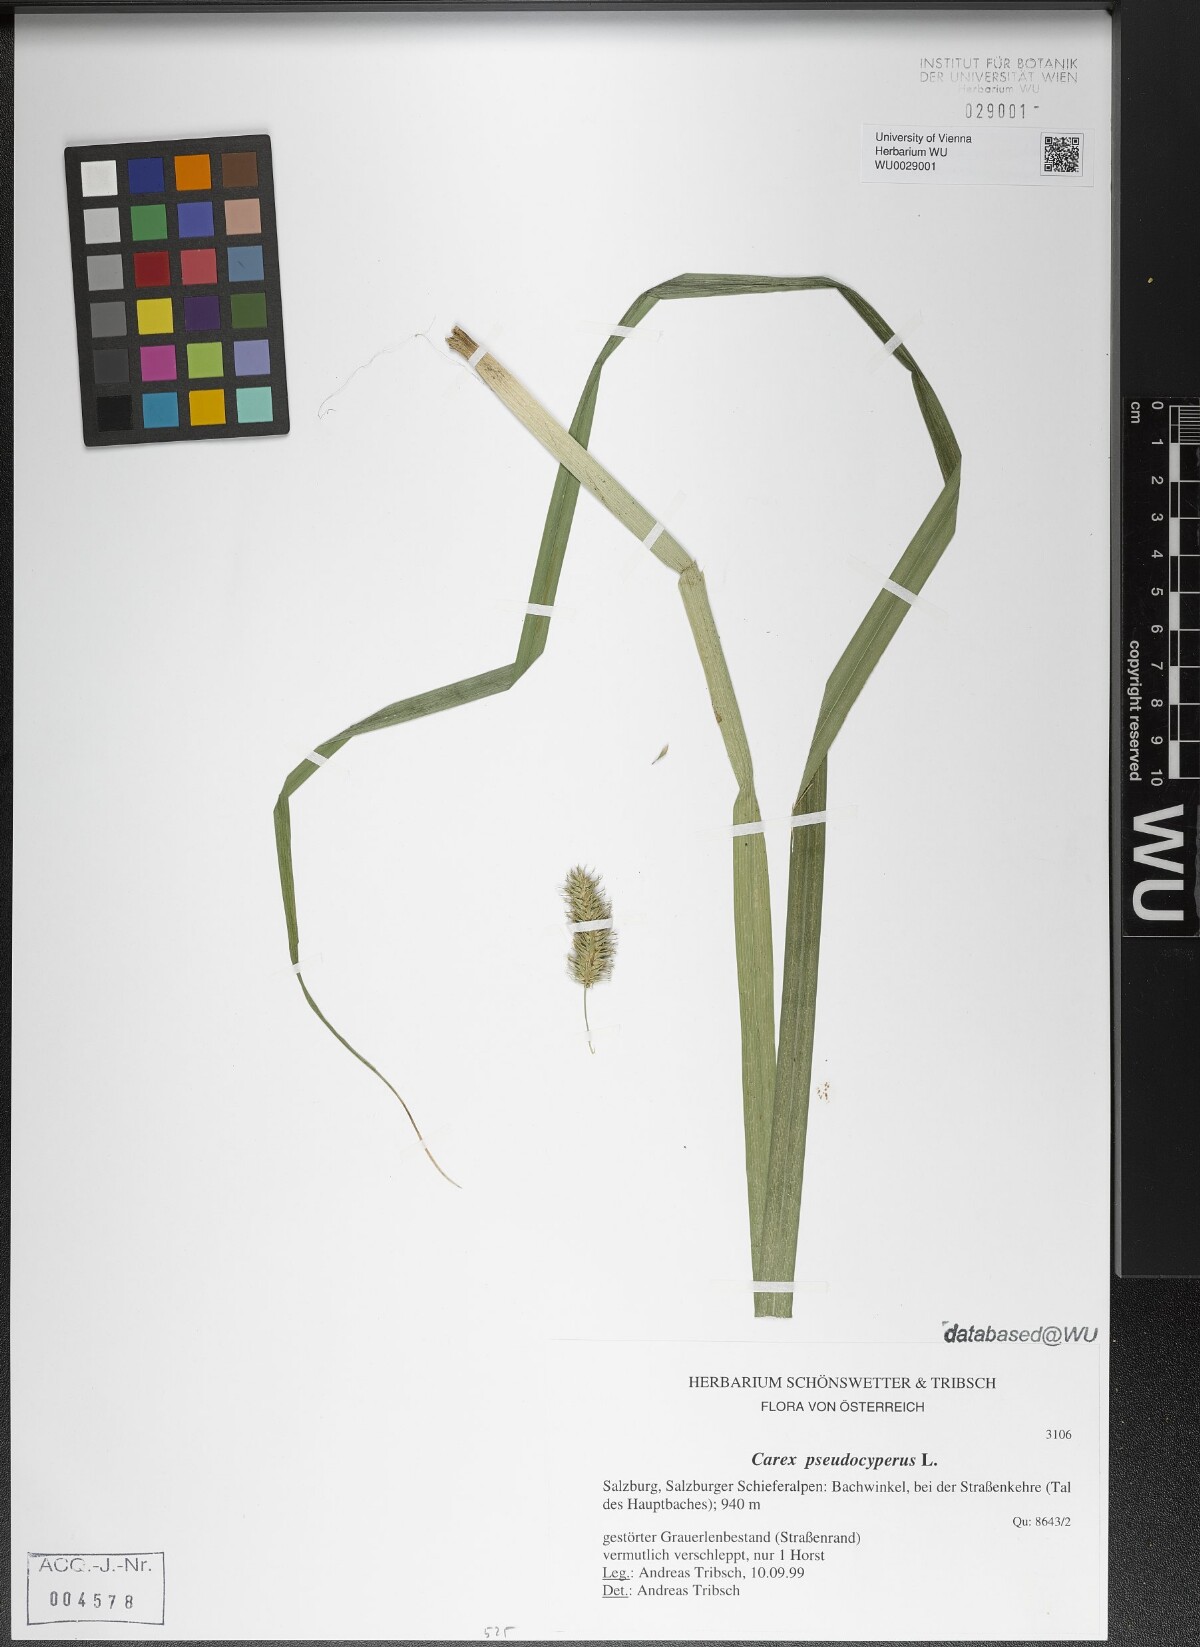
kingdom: Plantae
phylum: Tracheophyta
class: Liliopsida
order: Poales
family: Cyperaceae
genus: Carex
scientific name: Carex pseudocyperus
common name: Cyperus sedge
